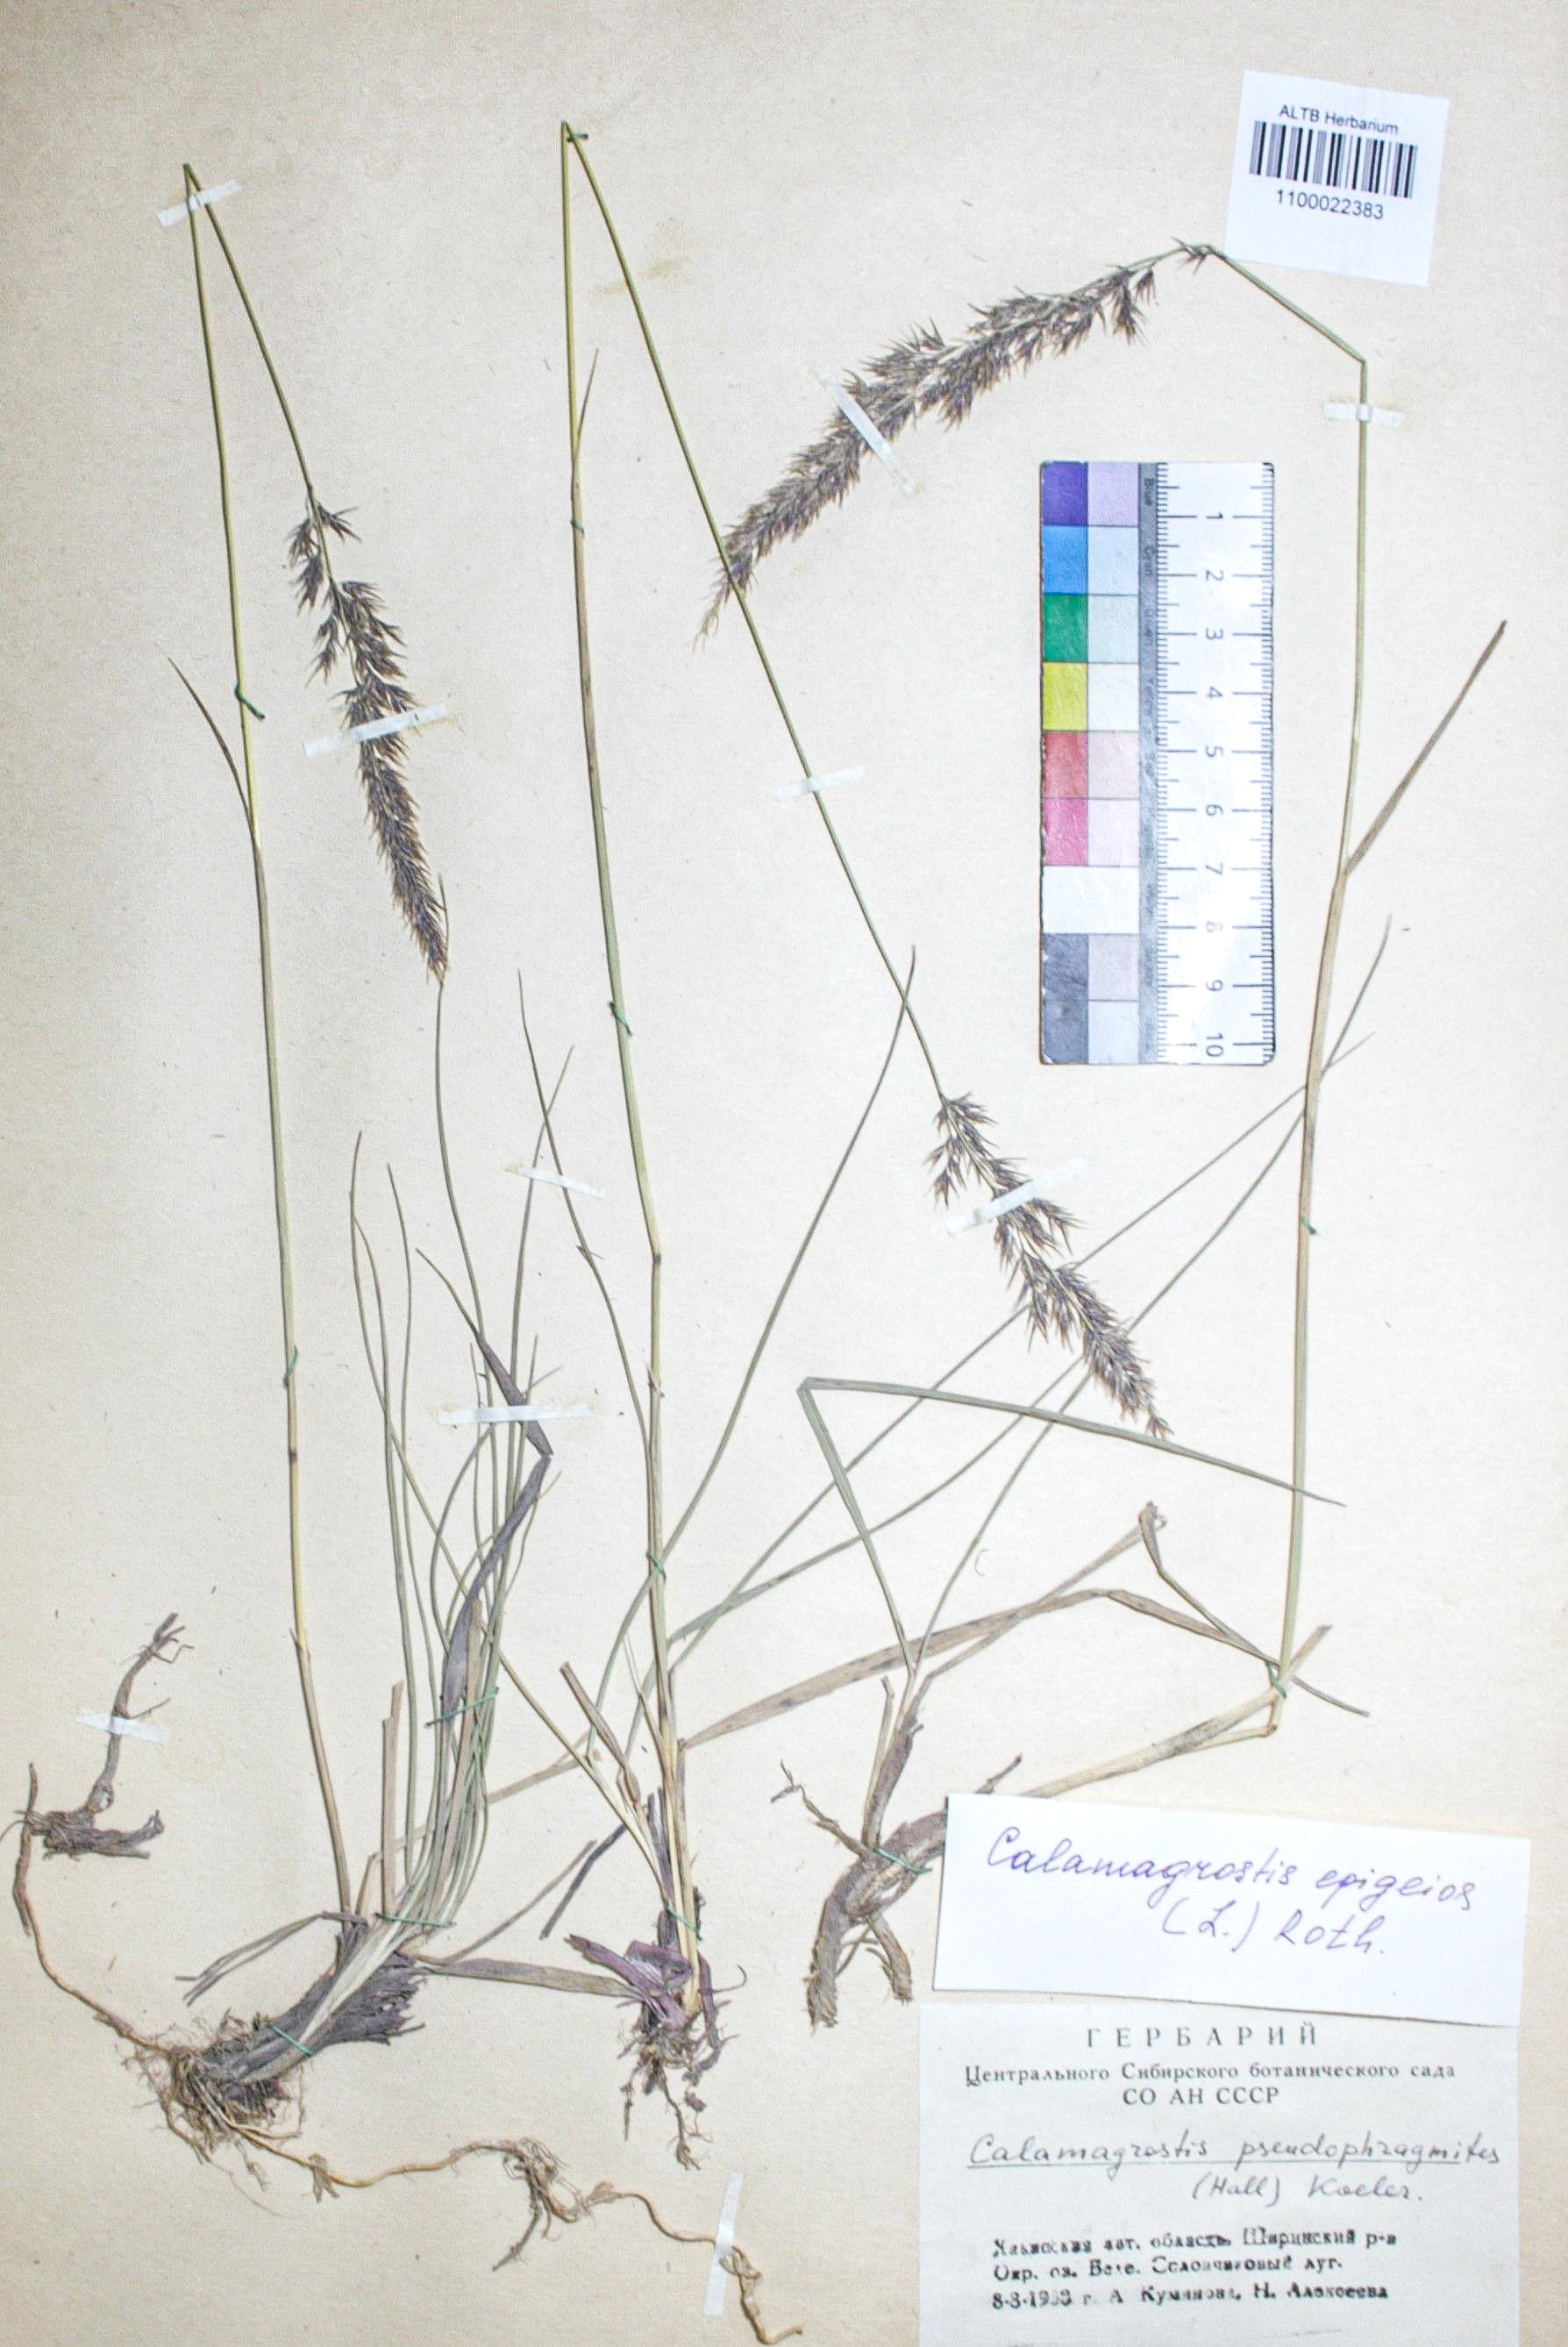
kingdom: Plantae
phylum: Tracheophyta
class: Liliopsida
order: Poales
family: Poaceae
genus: Calamagrostis
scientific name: Calamagrostis epigejos
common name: Wood small-reed
